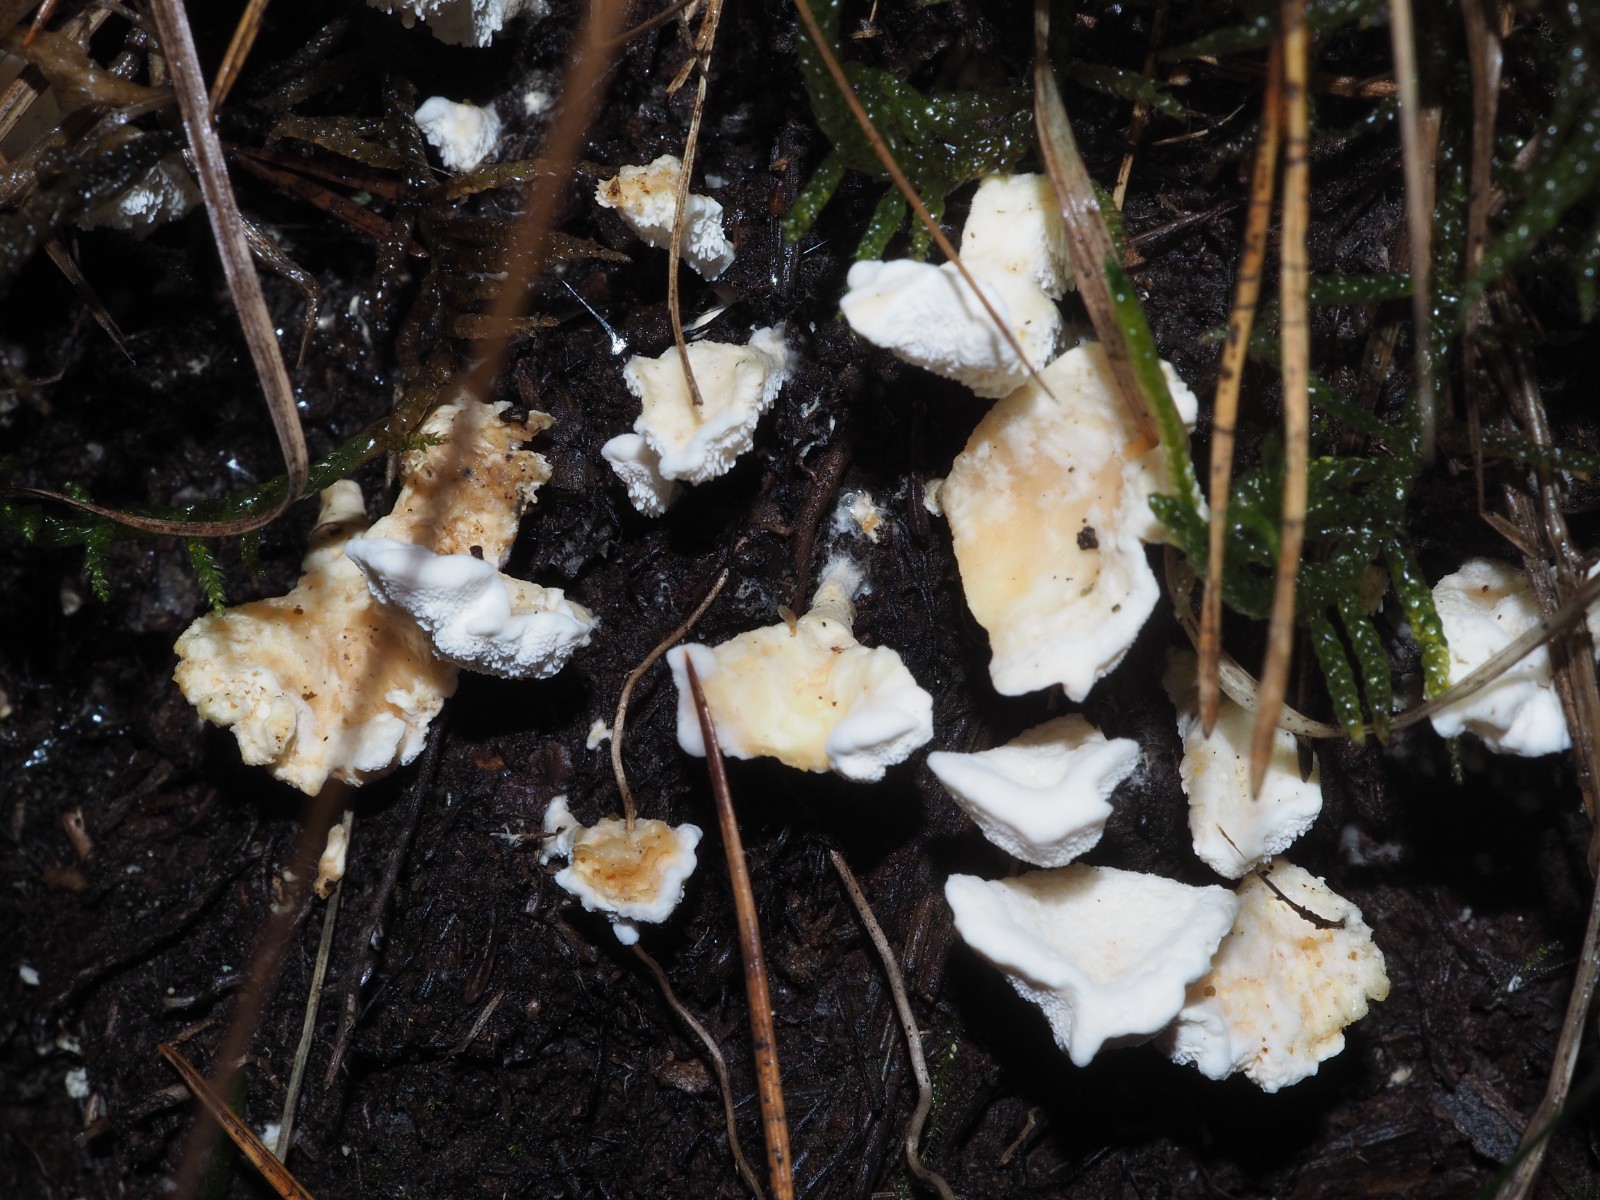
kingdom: Fungi
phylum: Basidiomycota
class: Agaricomycetes
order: Cantharellales
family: Hydnaceae
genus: Sistotrema
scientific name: Sistotrema confluens
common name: stilket kroneskorpe
